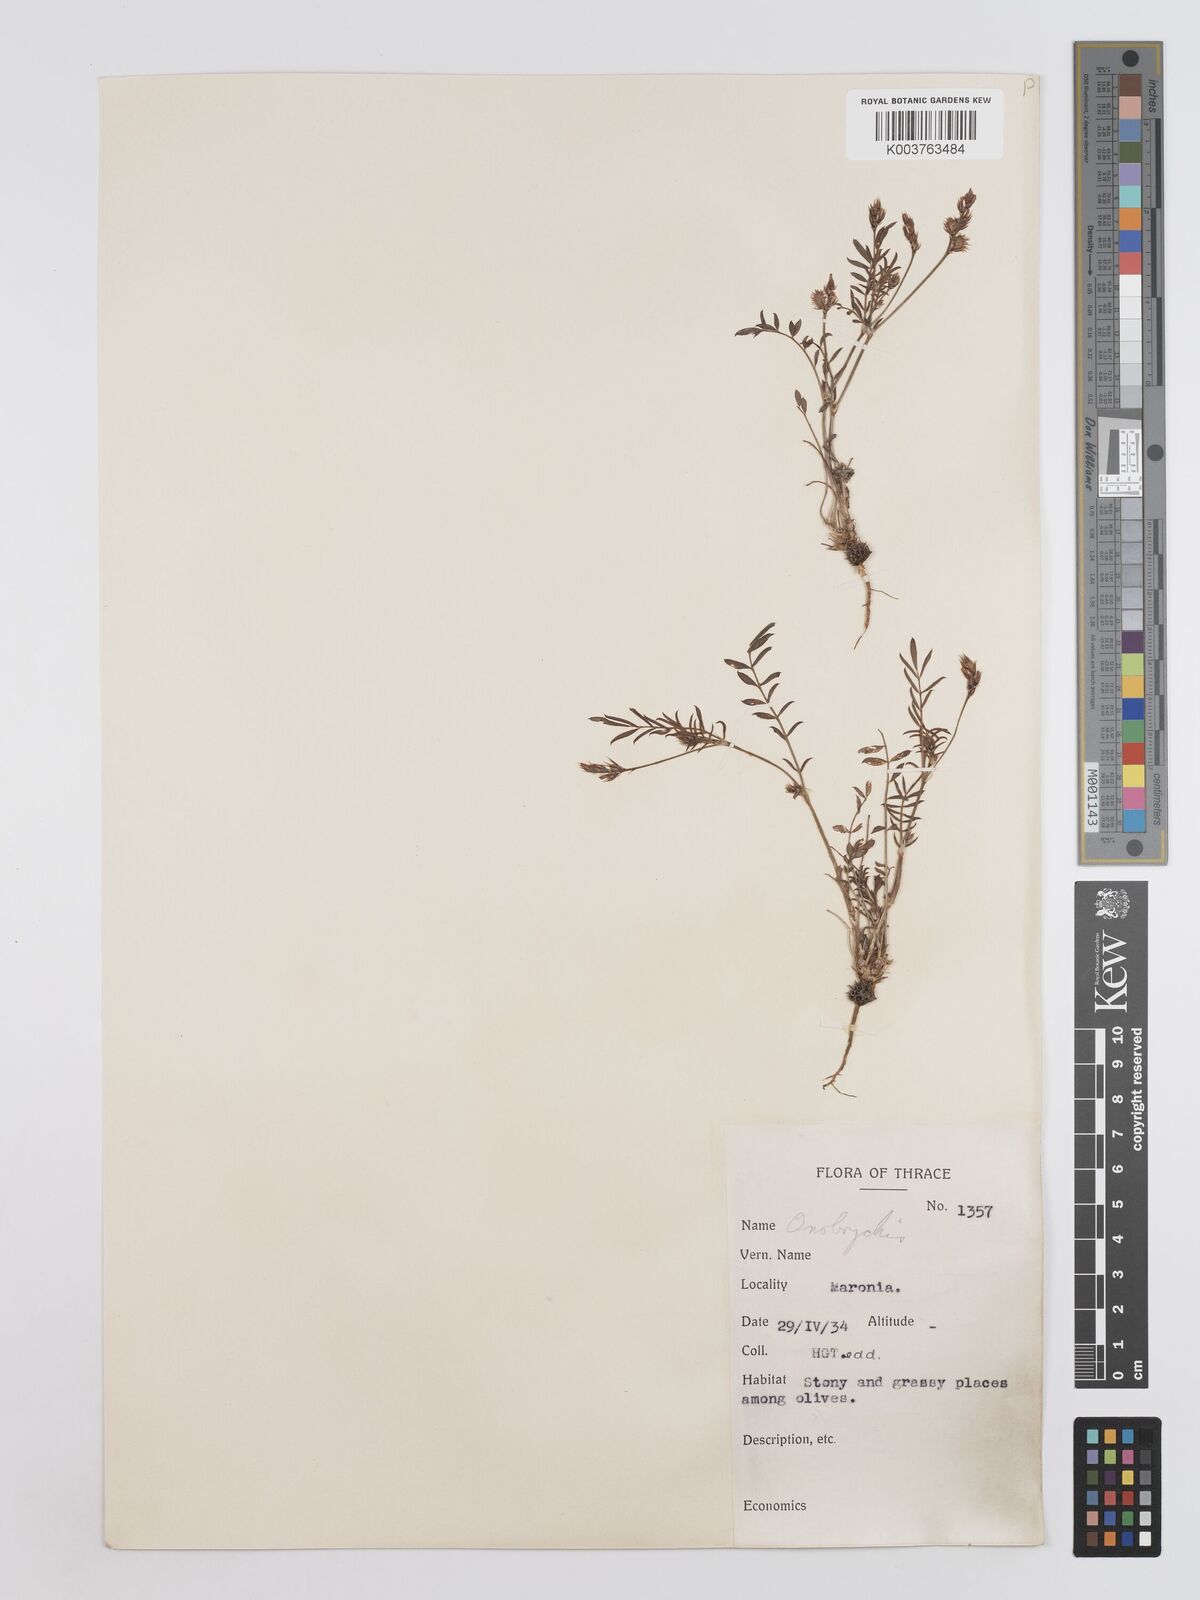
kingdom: Plantae
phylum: Tracheophyta
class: Magnoliopsida
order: Fabales
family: Fabaceae
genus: Onobrychis
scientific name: Onobrychis caput-galli
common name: Cockscomb sainfoin
